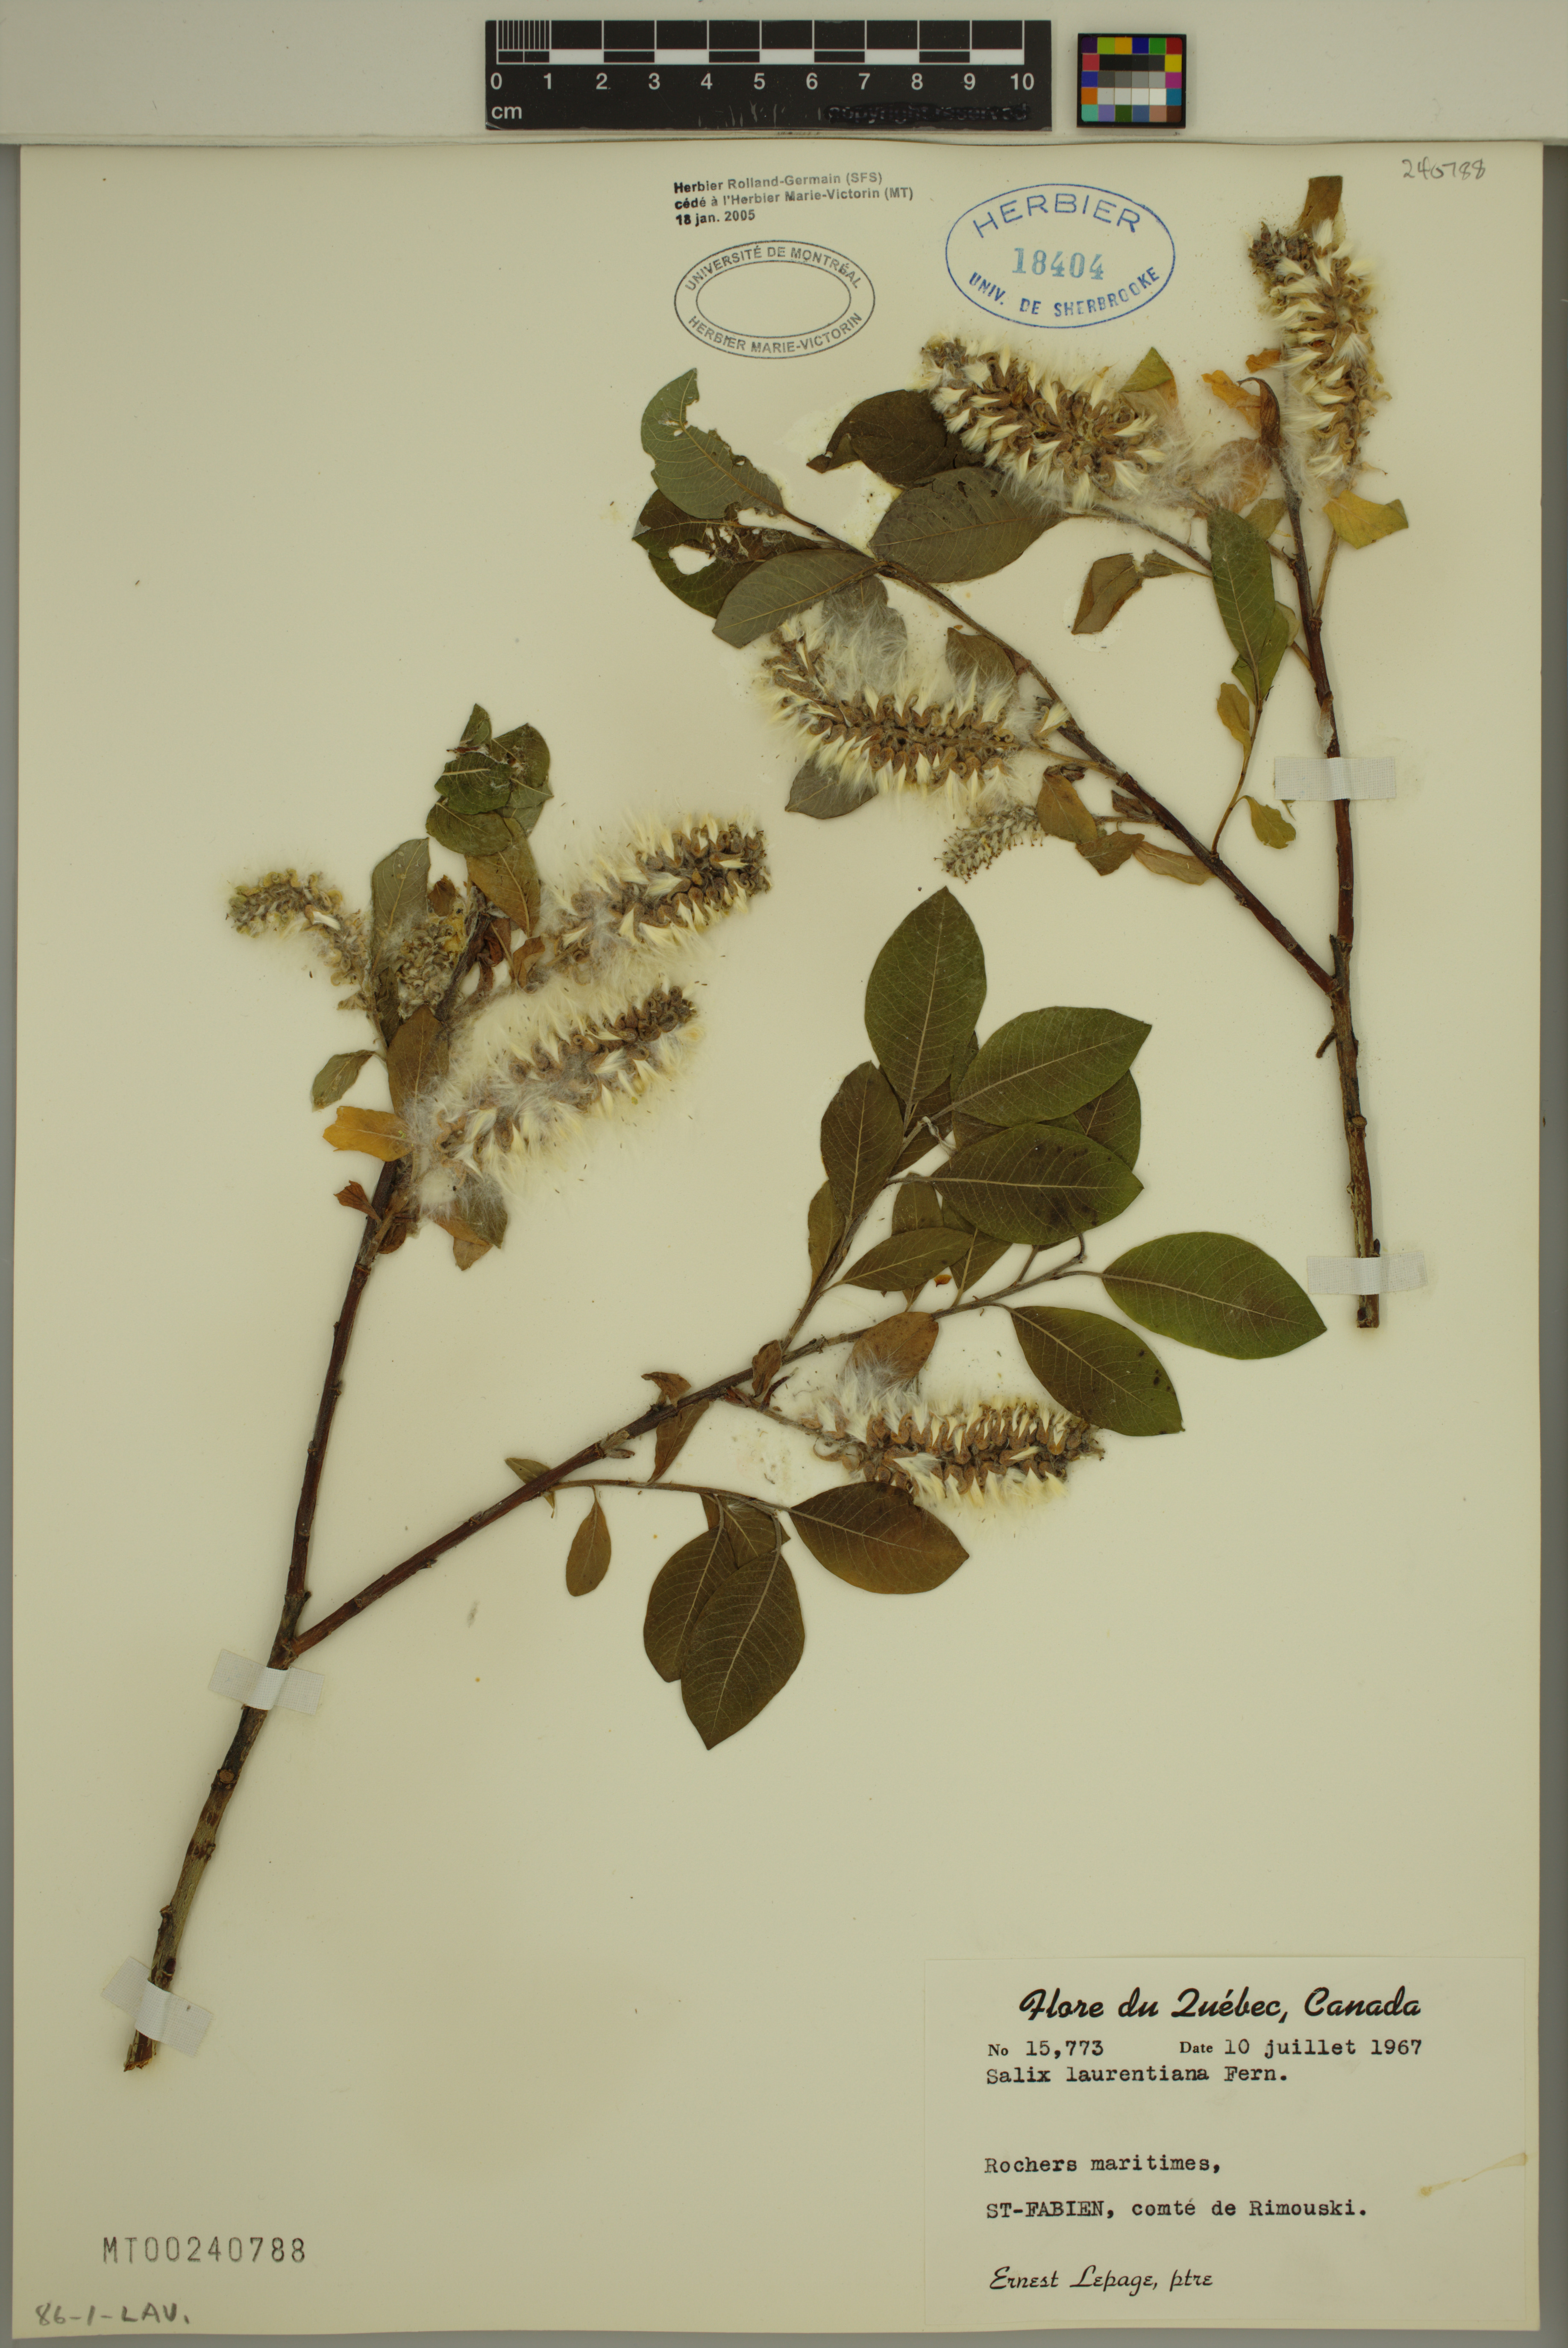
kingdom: Plantae
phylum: Tracheophyta
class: Magnoliopsida
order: Malpighiales
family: Salicaceae
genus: Salix
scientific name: Salix laurentiana
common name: Gulf of st. lawrence willow
